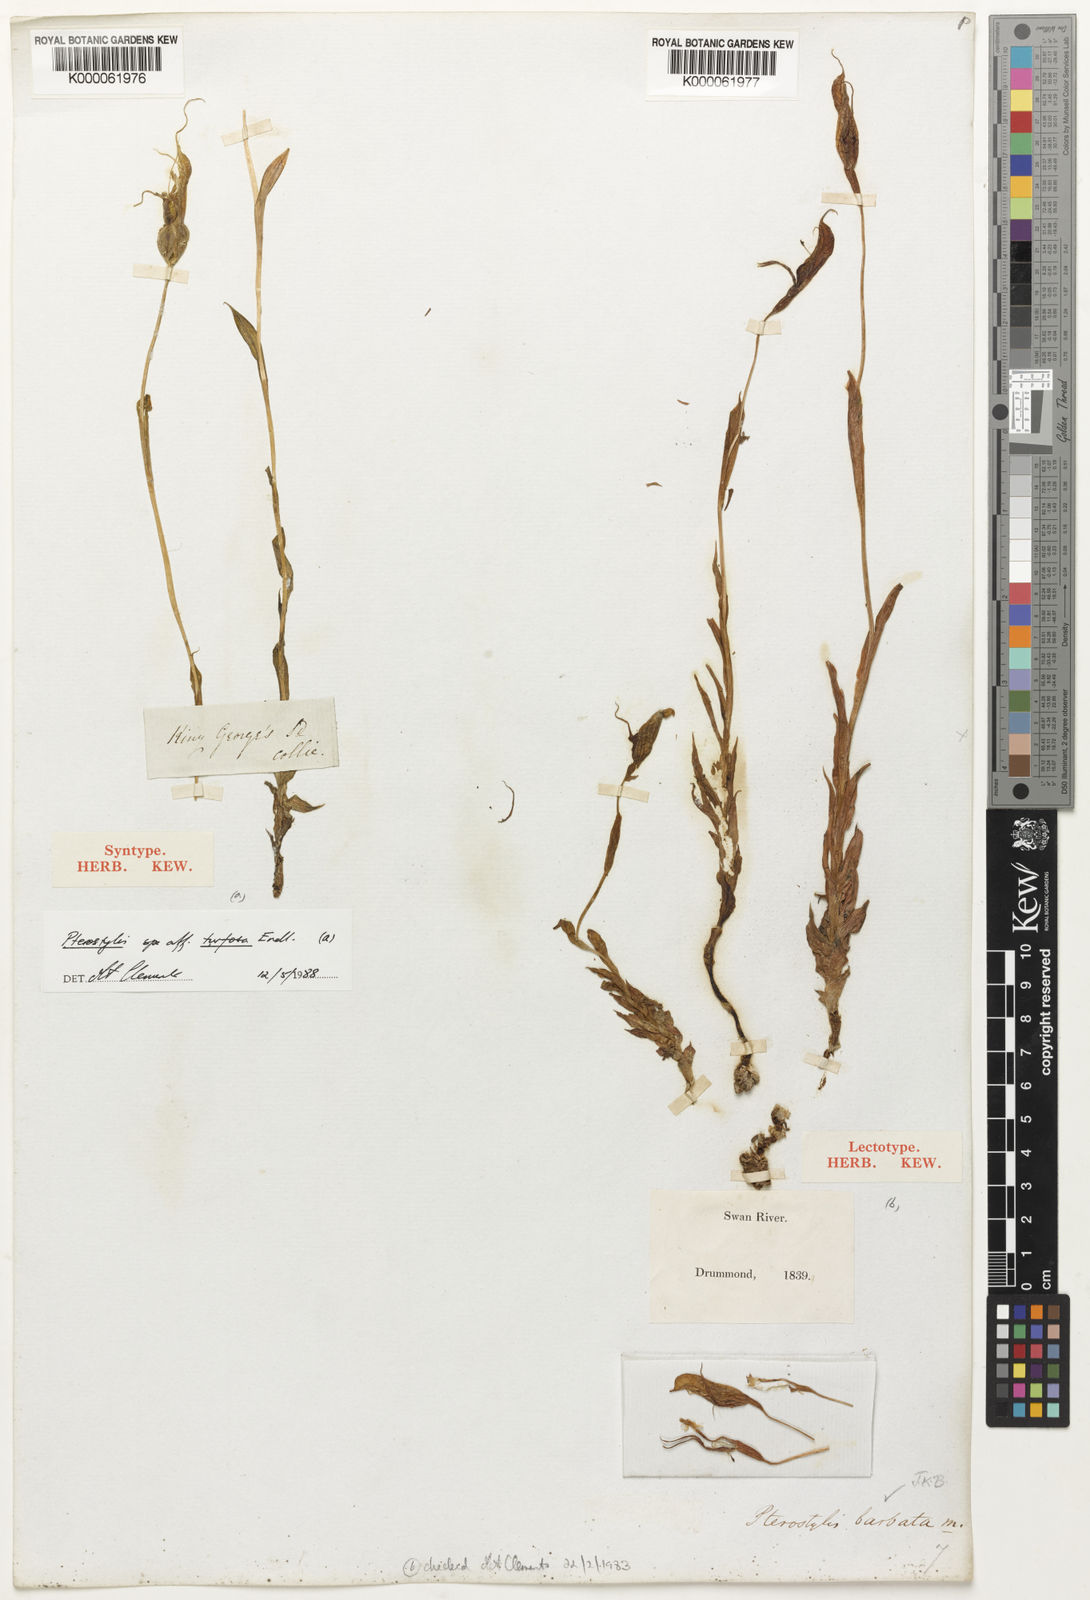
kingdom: Plantae
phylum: Tracheophyta
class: Liliopsida
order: Asparagales
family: Orchidaceae
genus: Pterostylis
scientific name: Pterostylis barbata
